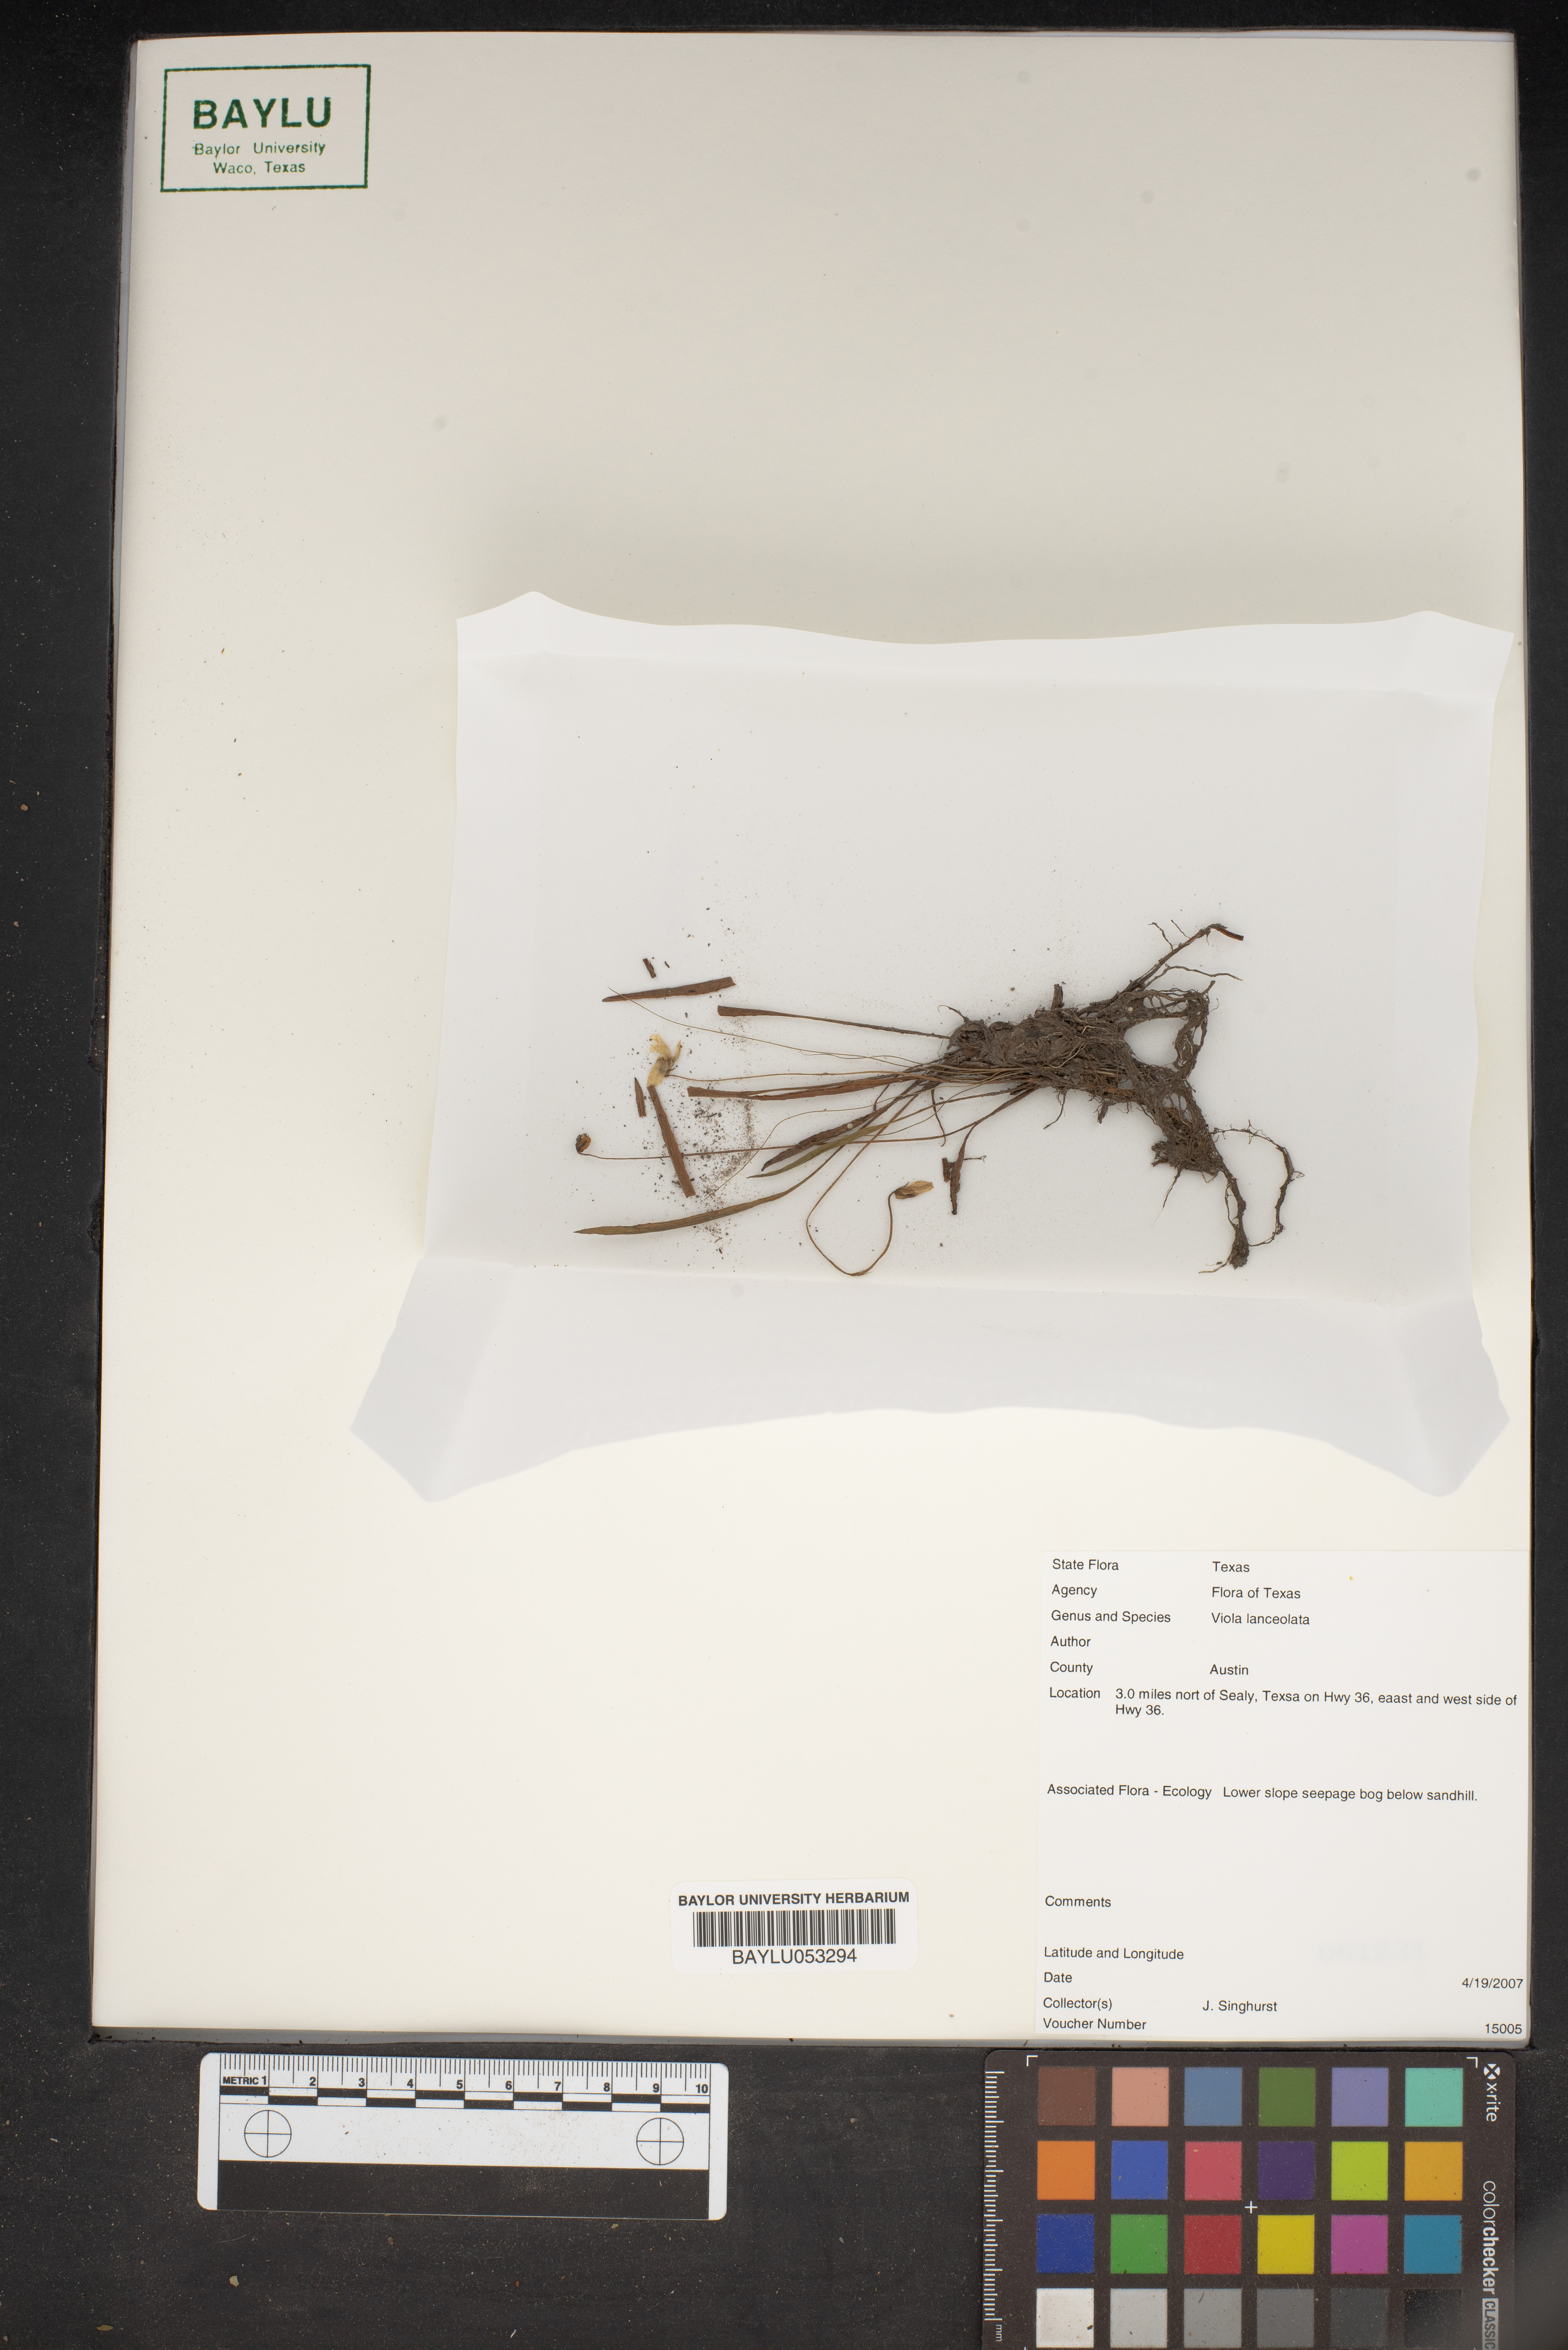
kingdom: Plantae
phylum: Tracheophyta
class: Magnoliopsida
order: Malpighiales
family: Violaceae
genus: Viola
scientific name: Viola lanceolata
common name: Bog white violet
